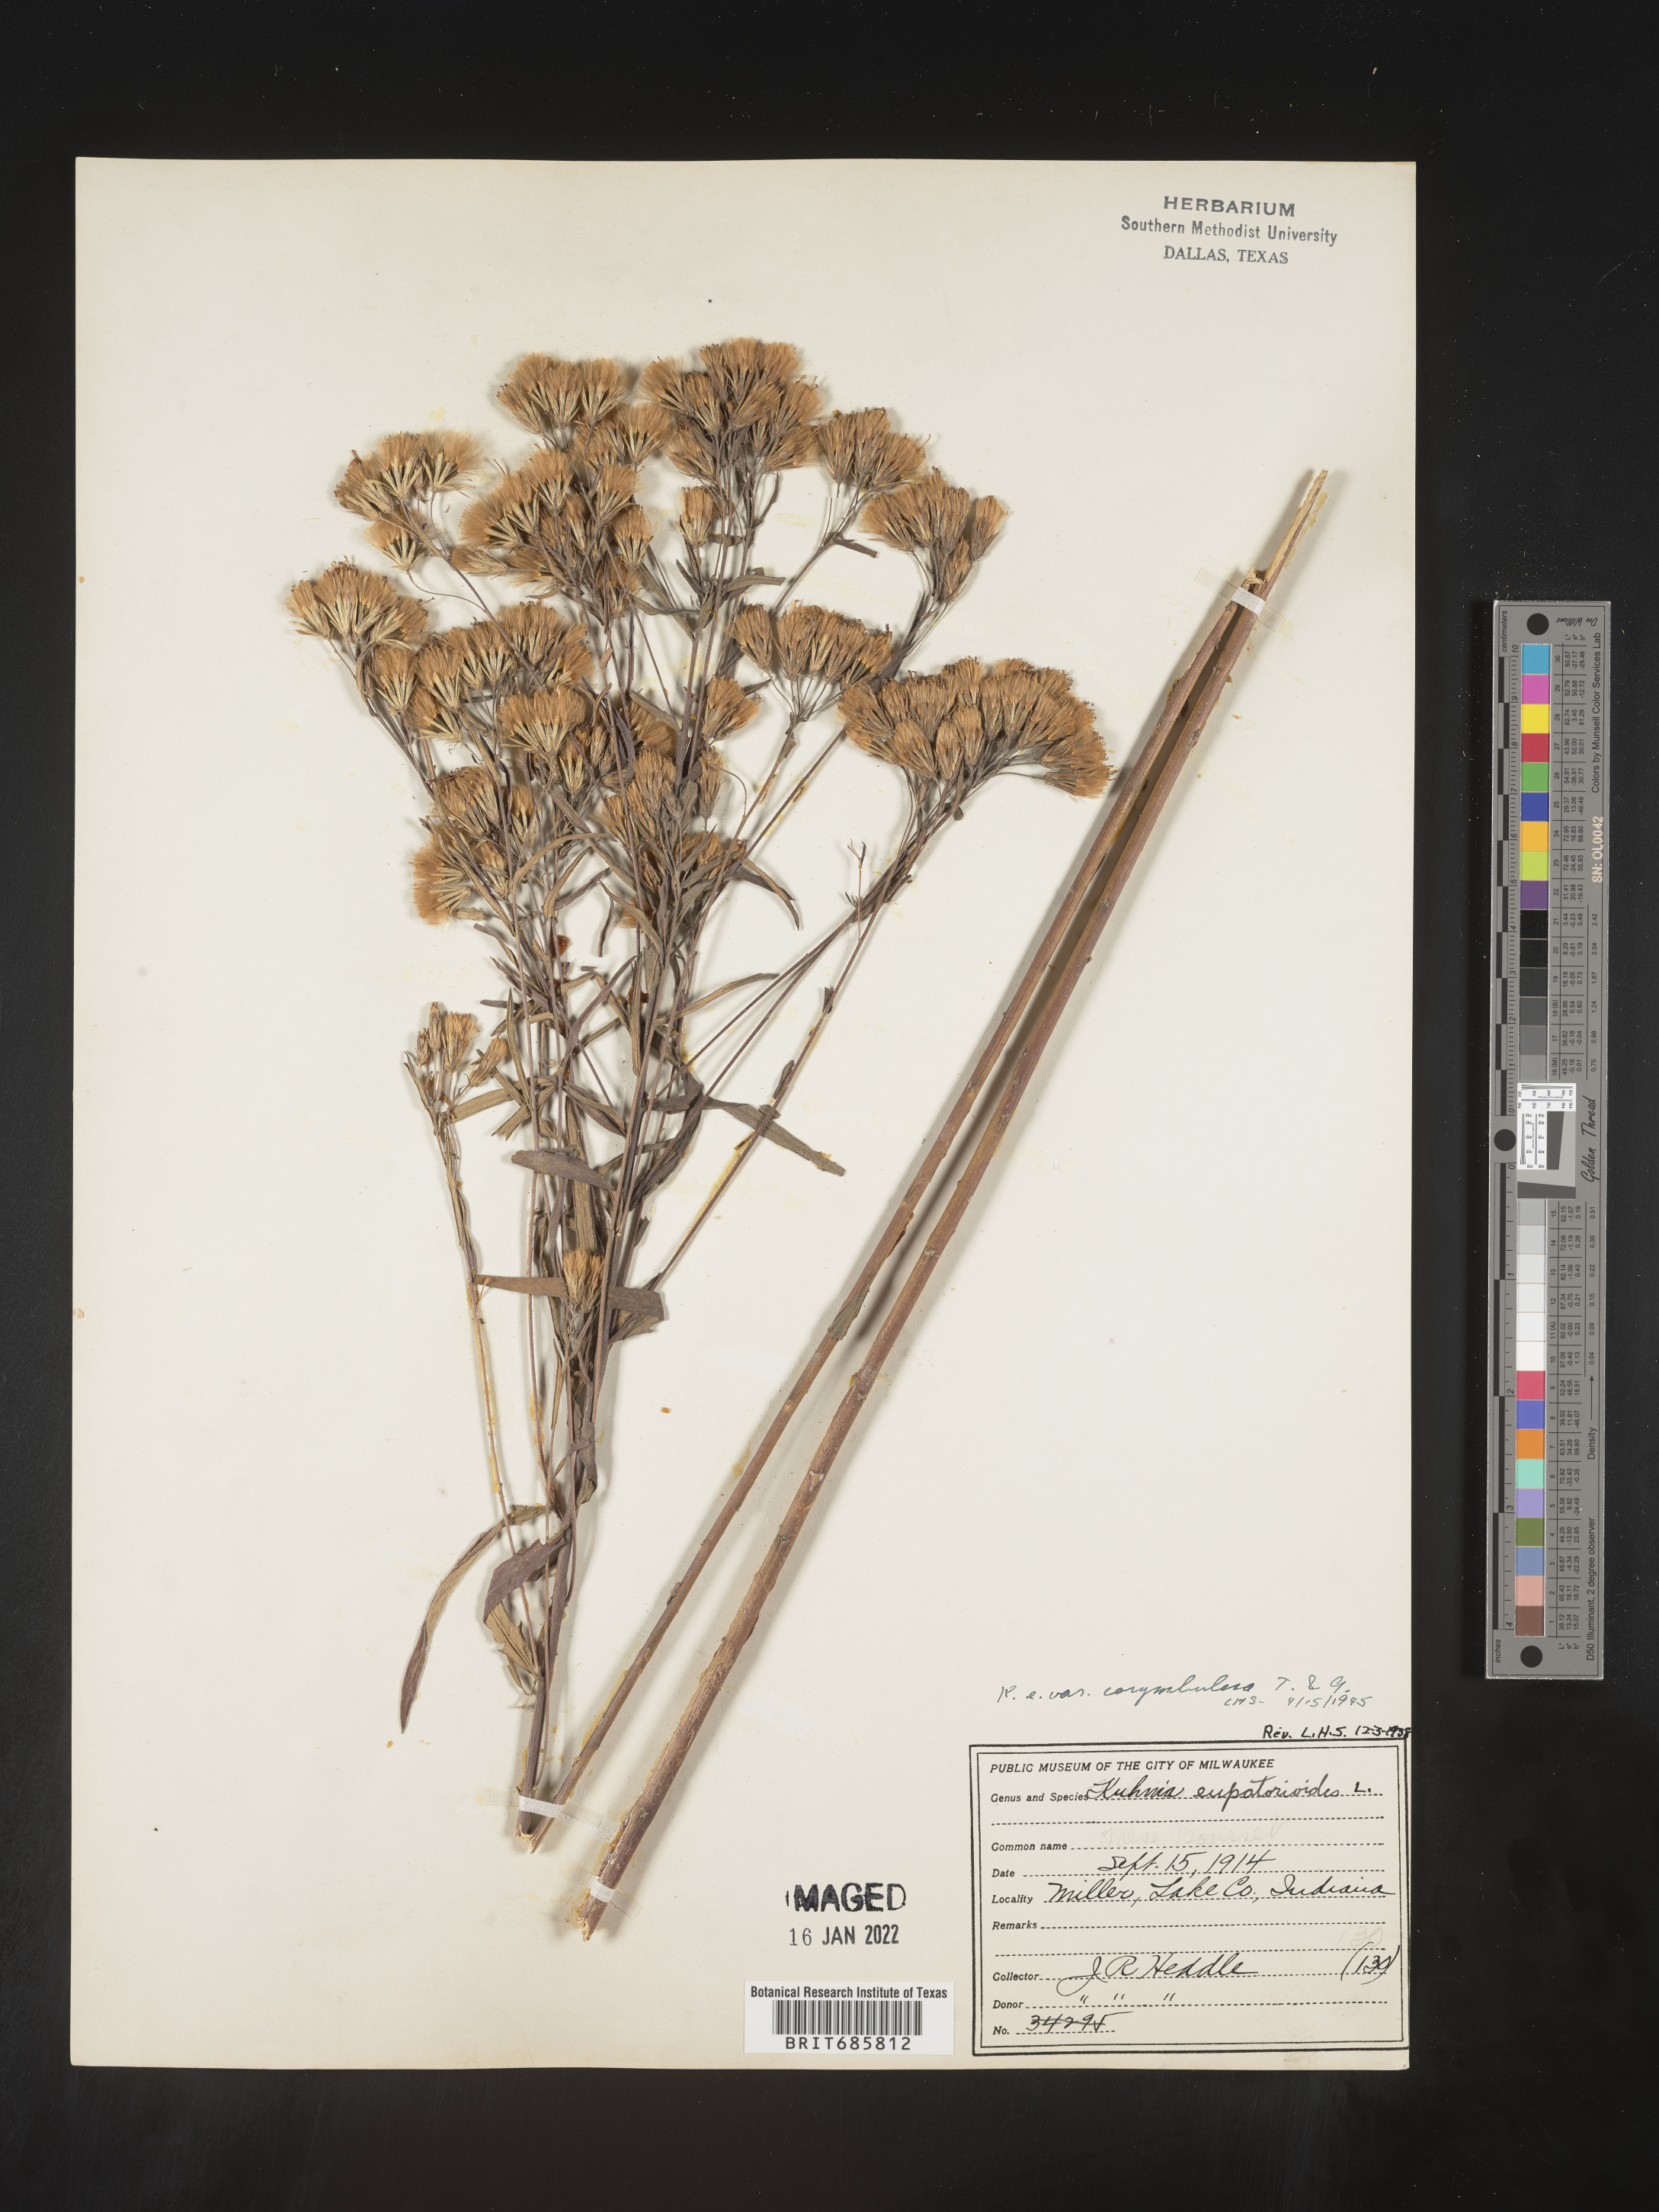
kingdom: Plantae
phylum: Tracheophyta
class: Magnoliopsida
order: Asterales
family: Asteraceae
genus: Brickellia
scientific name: Brickellia eupatorioides
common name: False boneset
